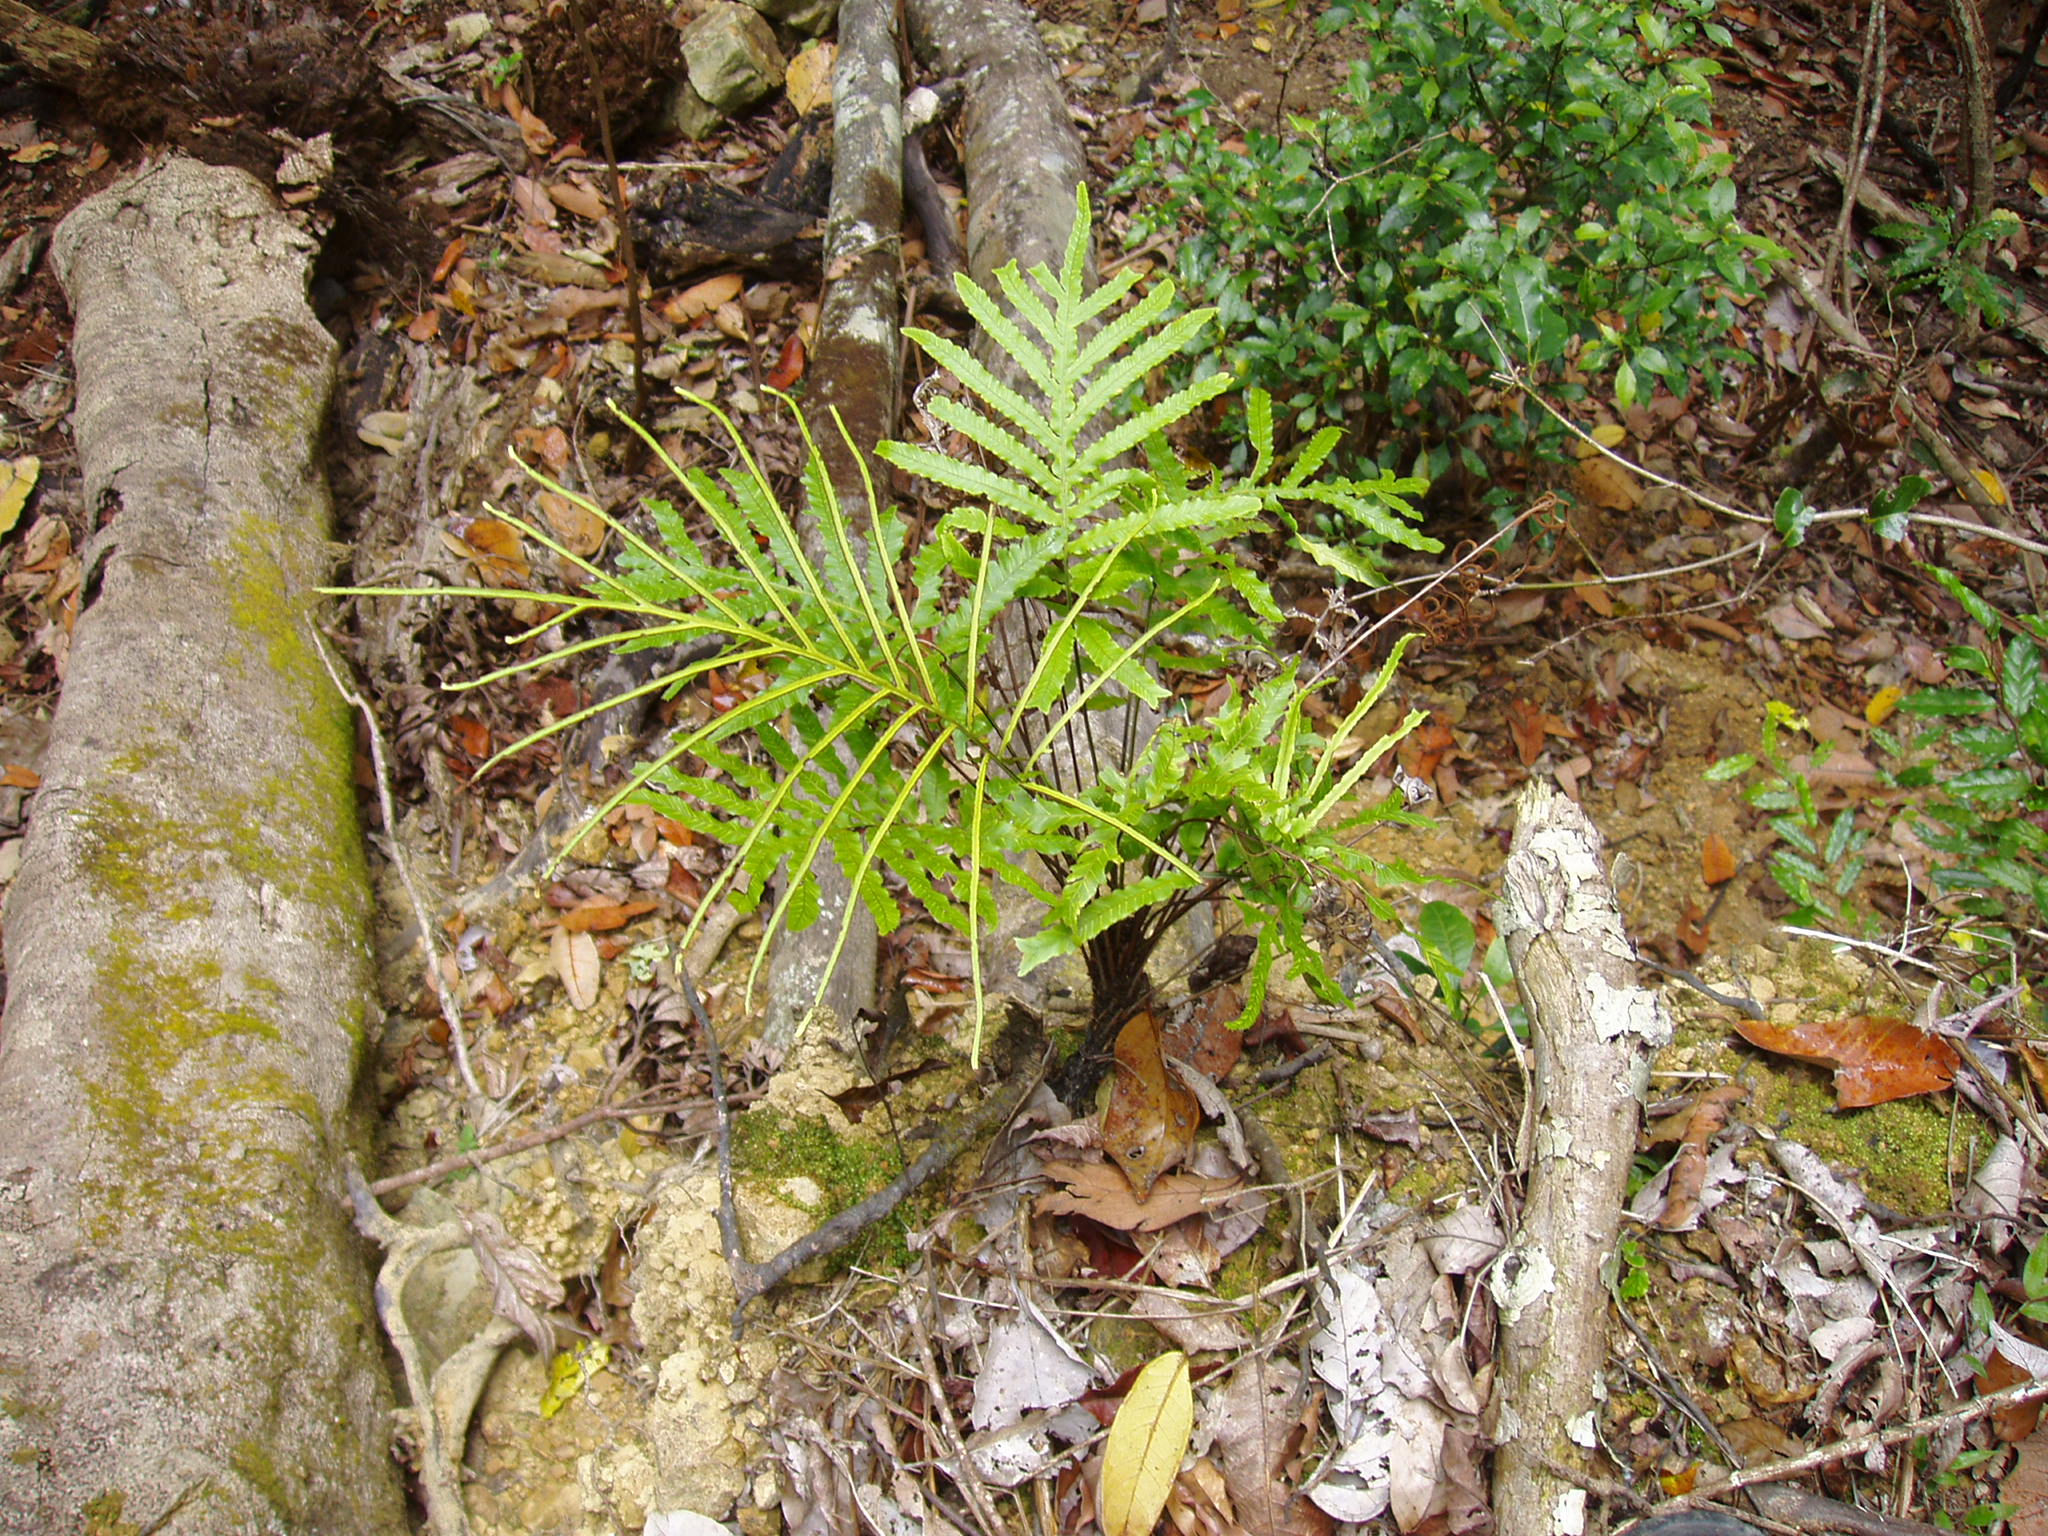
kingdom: Plantae
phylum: Tracheophyta
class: Polypodiopsida
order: Polypodiales
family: Blechnaceae
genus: Austroblechnum
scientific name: Austroblechnum vieillardii
